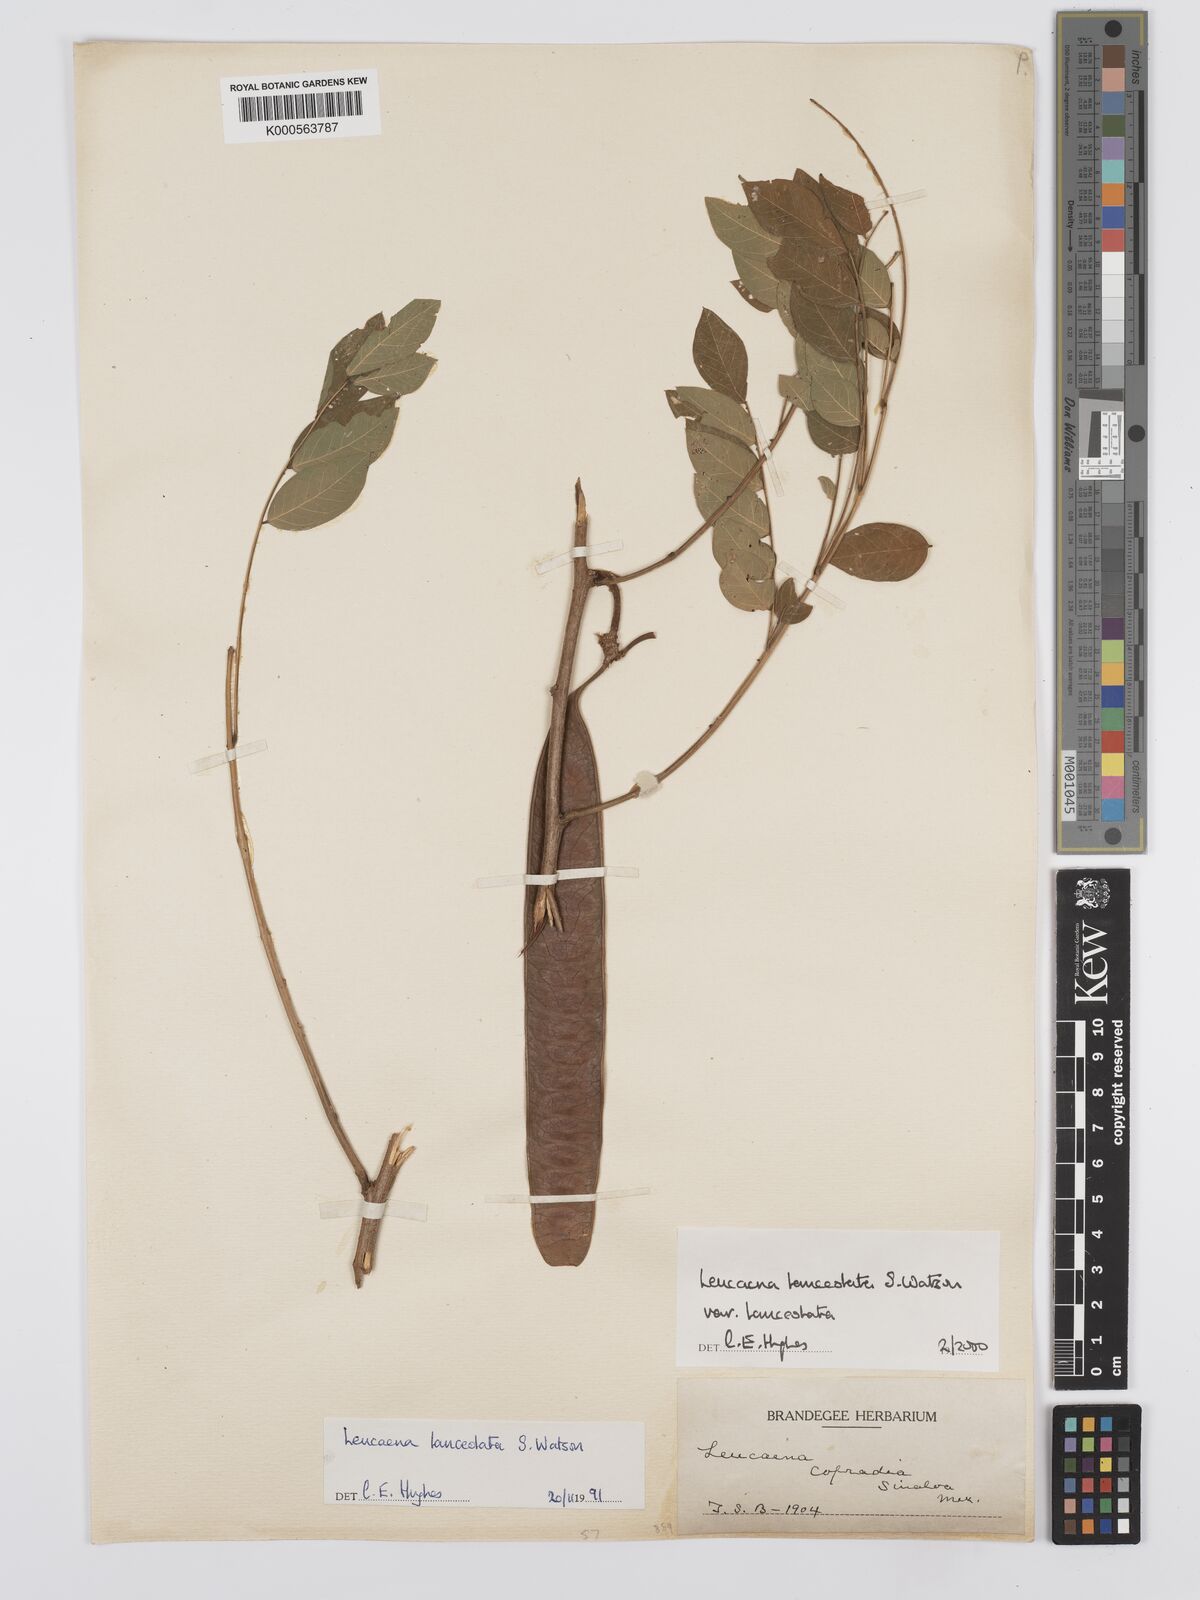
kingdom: Plantae
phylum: Tracheophyta
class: Magnoliopsida
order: Fabales
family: Fabaceae
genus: Leucaena
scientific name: Leucaena lanceolata
